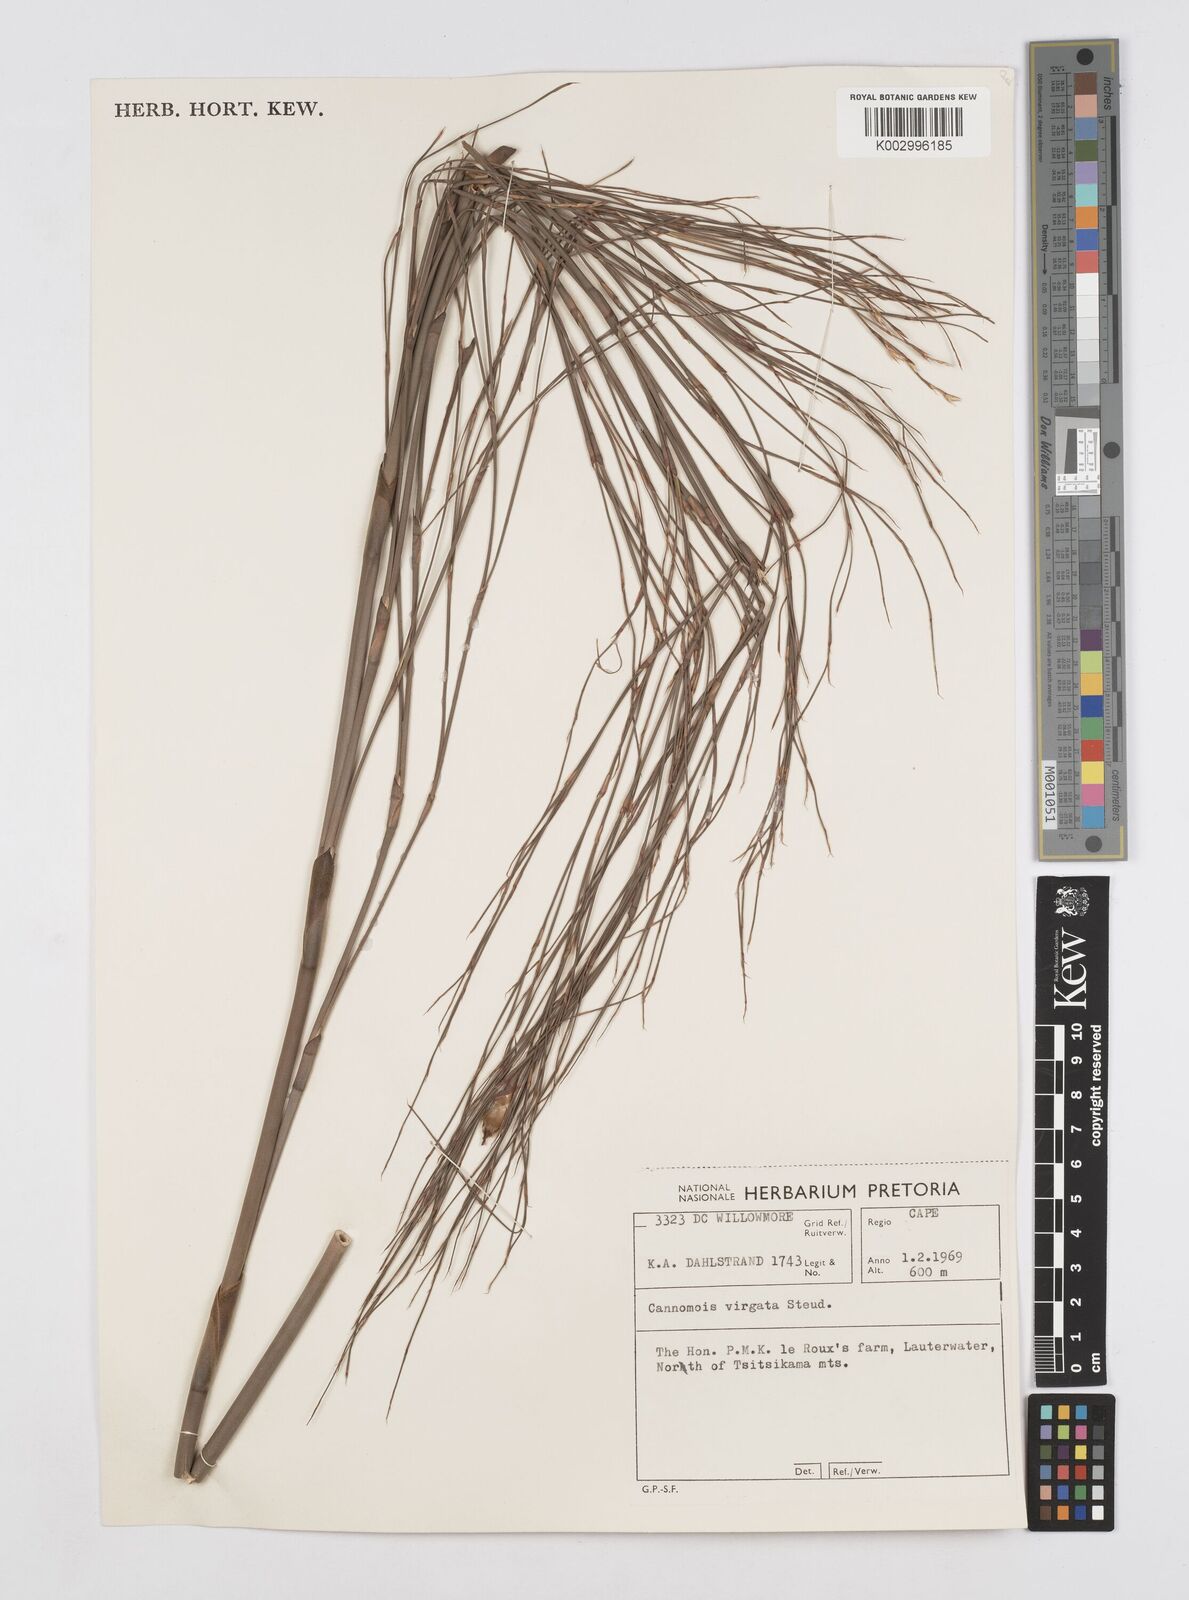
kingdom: Plantae
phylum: Tracheophyta
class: Liliopsida
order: Poales
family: Restionaceae
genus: Cannomois
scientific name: Cannomois virgata
